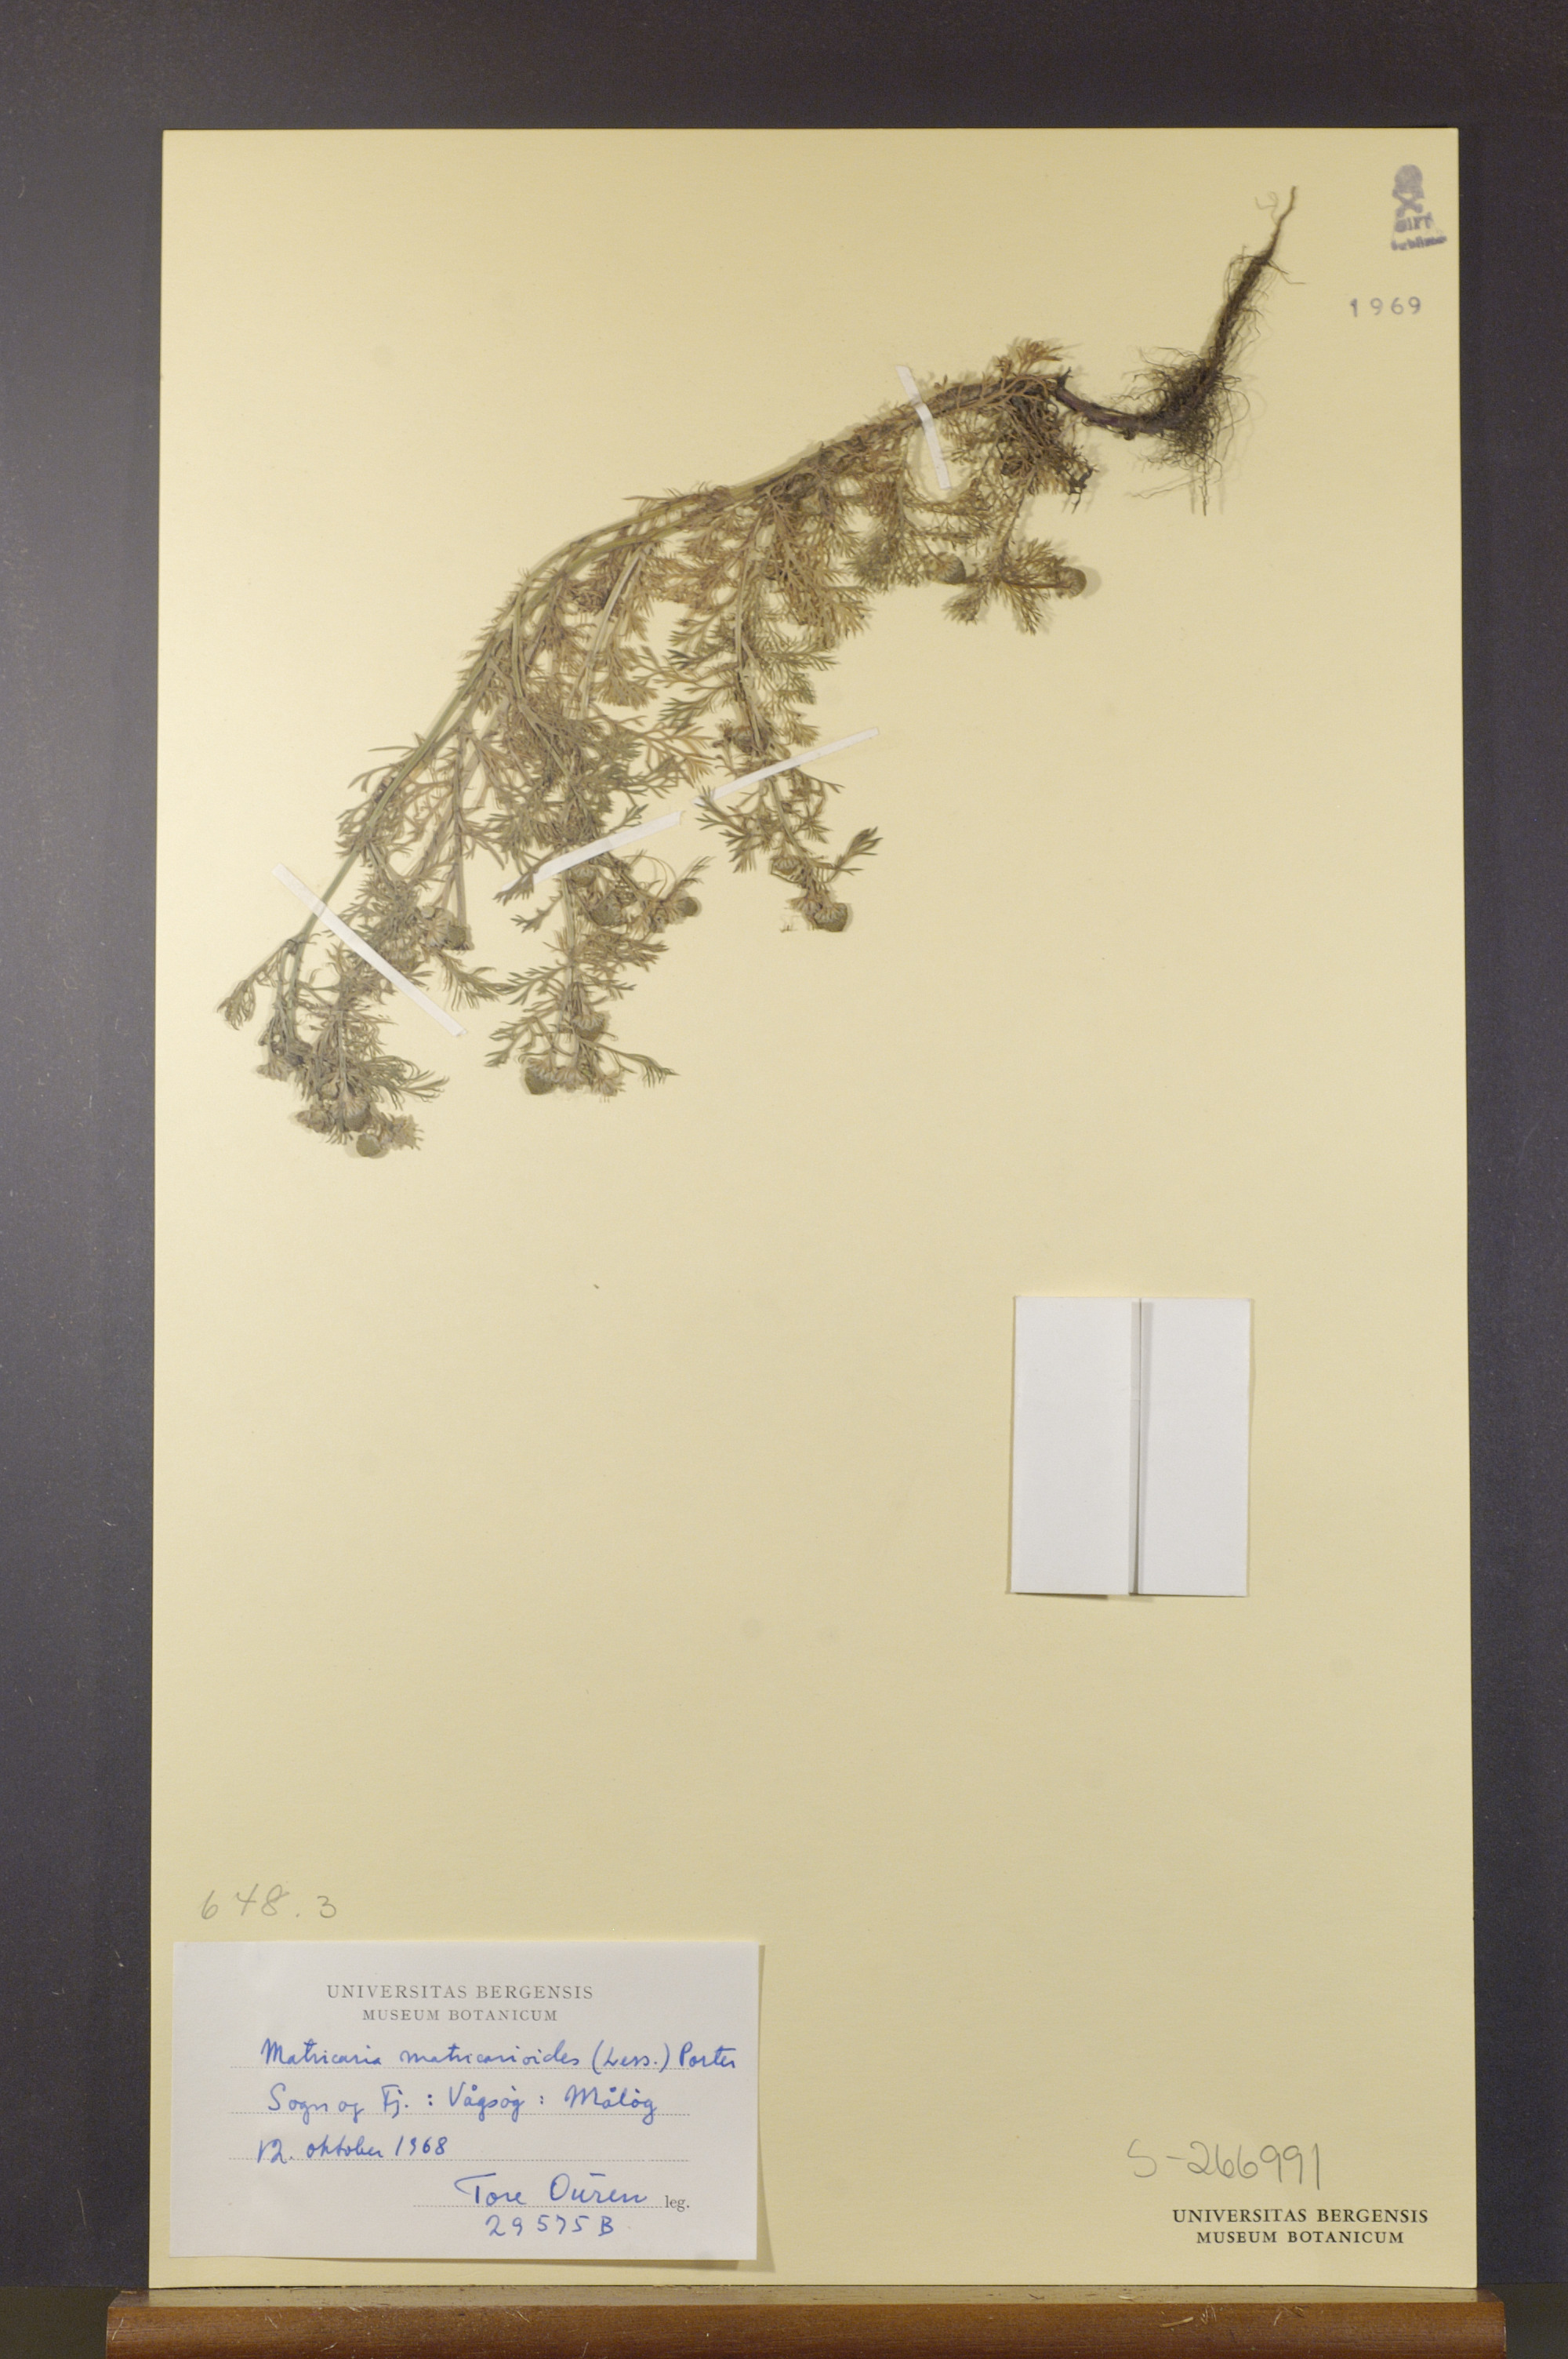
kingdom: Plantae
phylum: Tracheophyta
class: Magnoliopsida
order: Asterales
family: Asteraceae
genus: Matricaria
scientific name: Matricaria discoidea
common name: Disc mayweed
